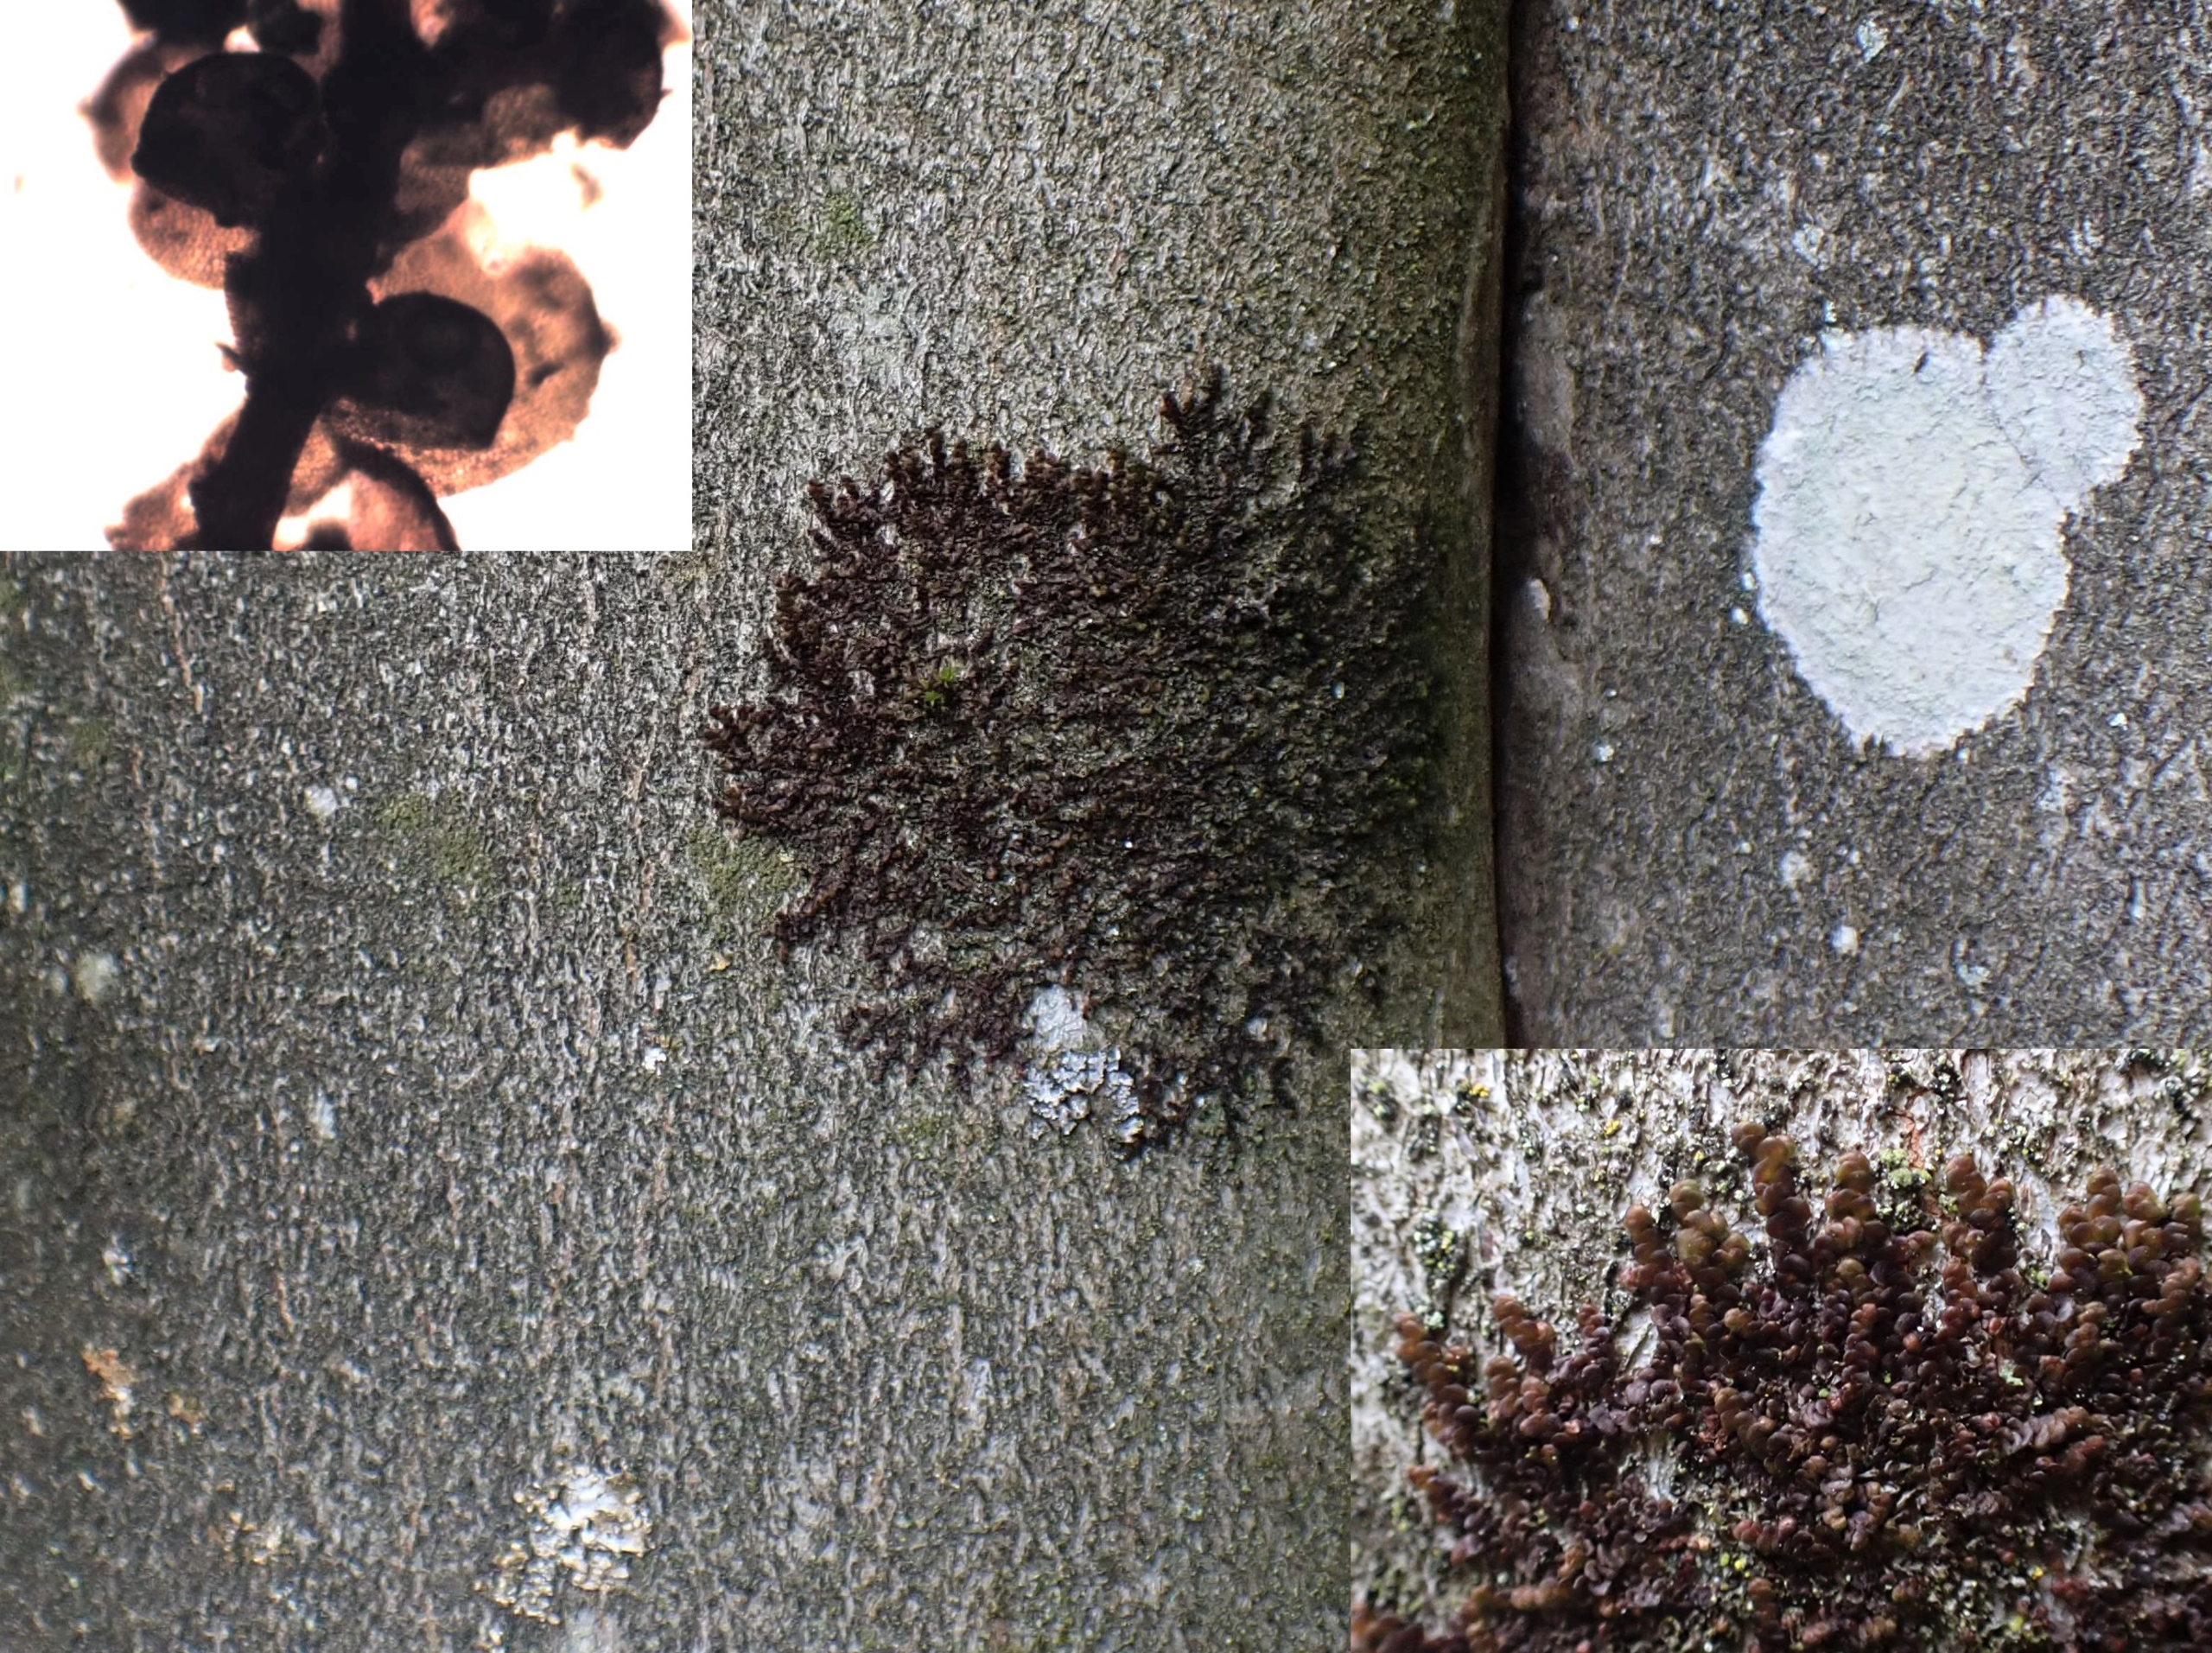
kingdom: Plantae
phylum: Marchantiophyta
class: Jungermanniopsida
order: Porellales
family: Frullaniaceae
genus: Frullania
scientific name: Frullania dilatata
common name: Mat bronzemos
